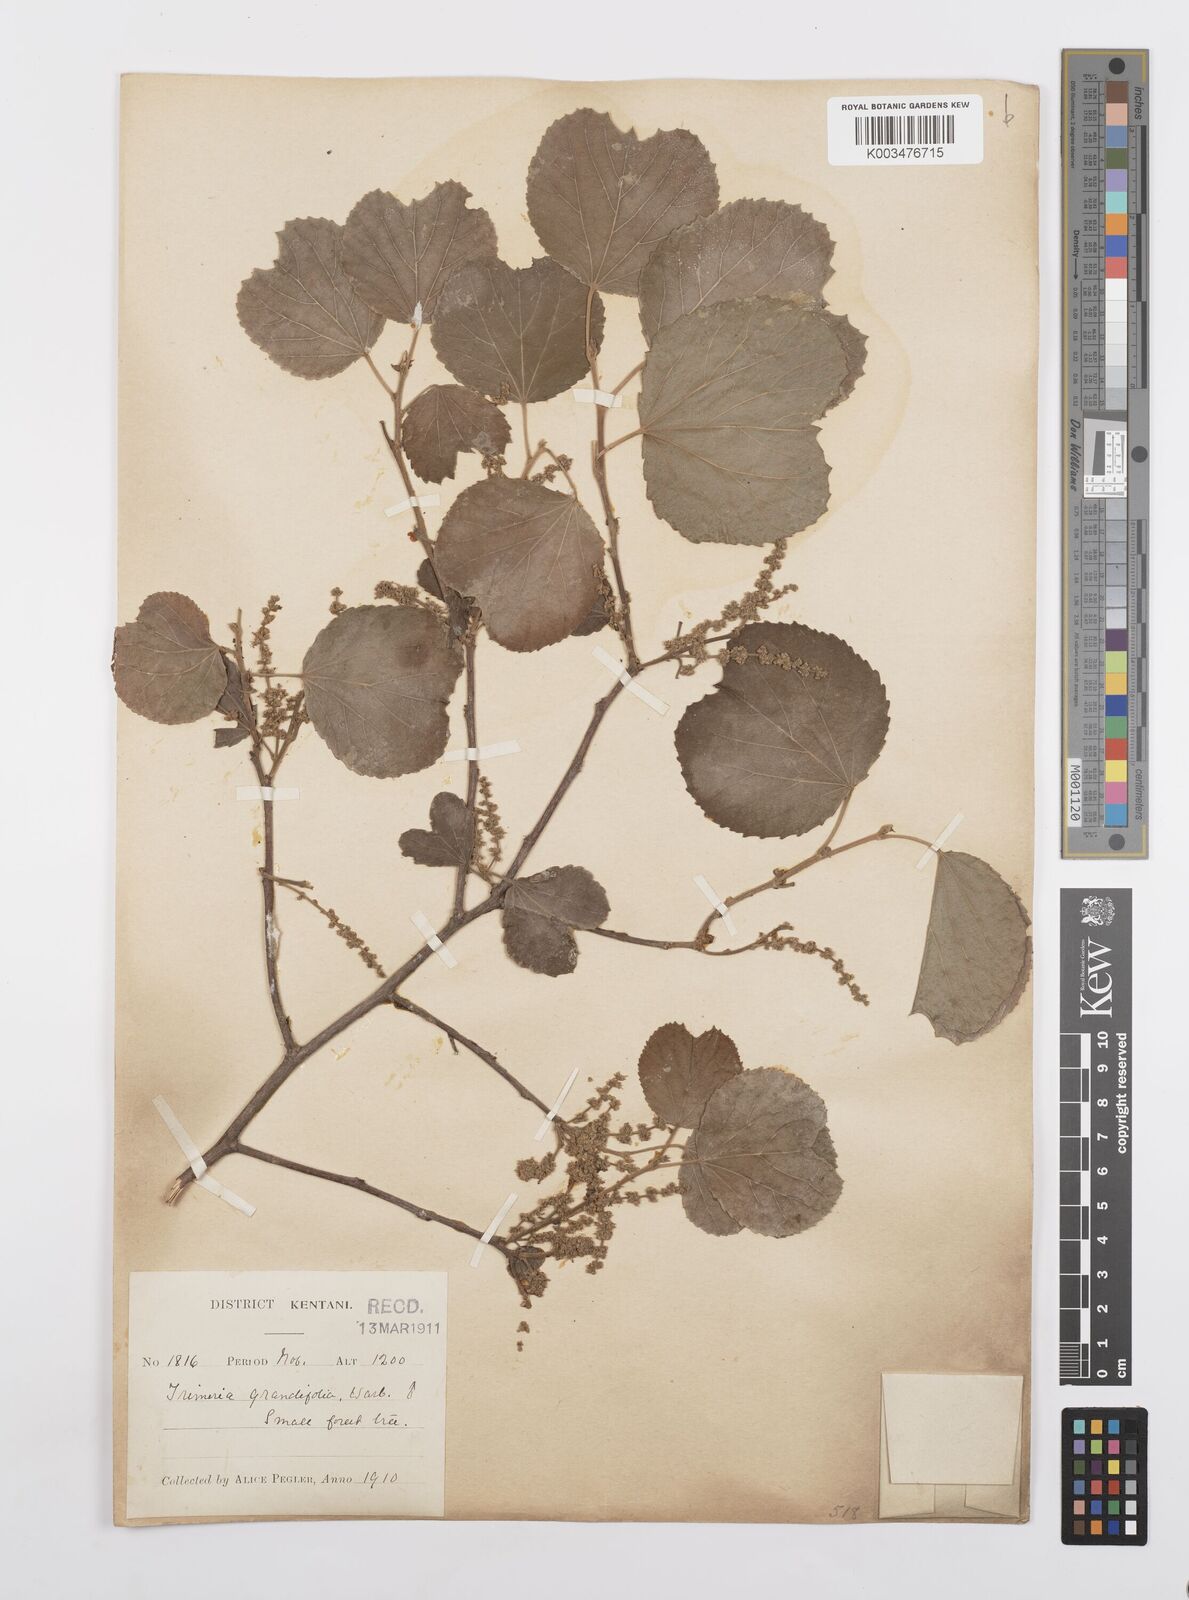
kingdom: Plantae
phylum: Tracheophyta
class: Magnoliopsida
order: Malpighiales
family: Salicaceae
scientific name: Salicaceae
